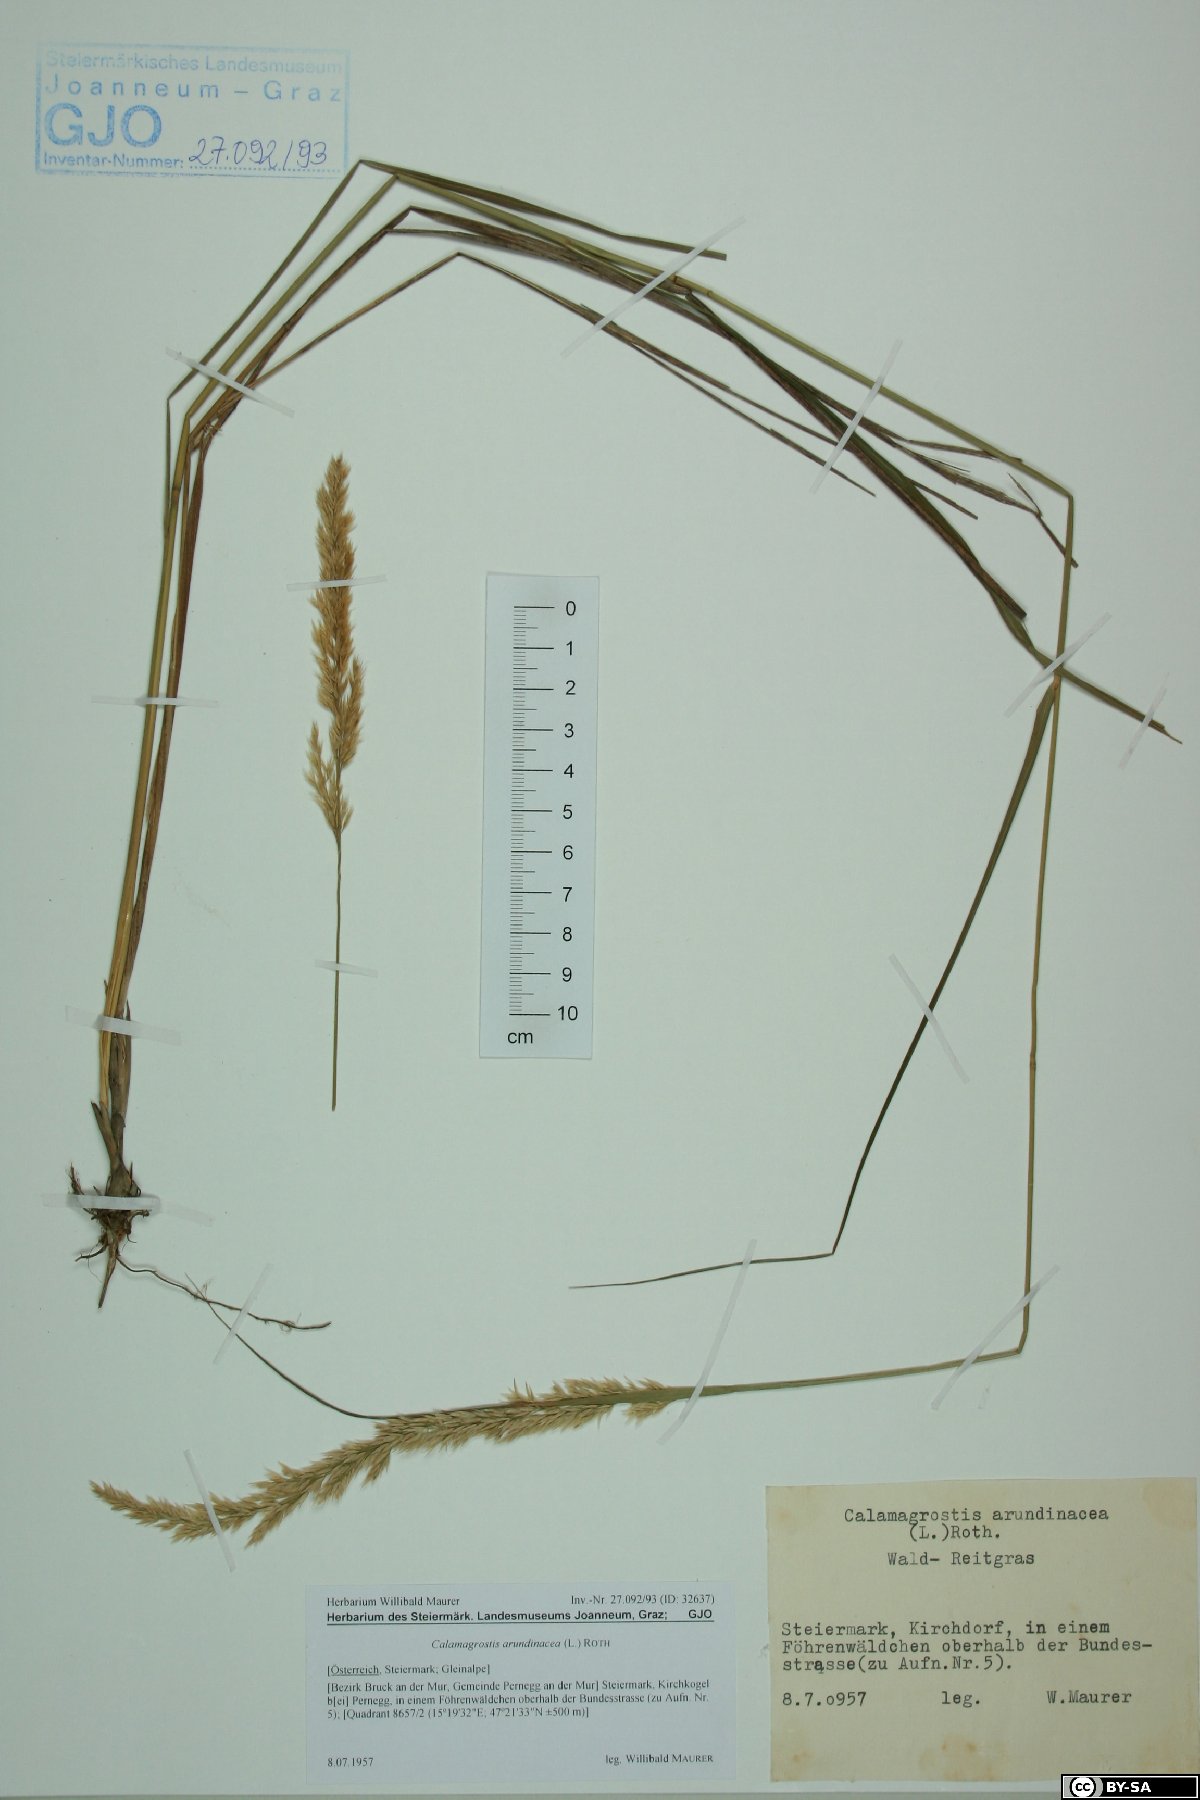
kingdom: Plantae
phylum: Tracheophyta
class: Liliopsida
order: Poales
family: Poaceae
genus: Calamagrostis
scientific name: Calamagrostis arundinacea
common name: Metskastik
